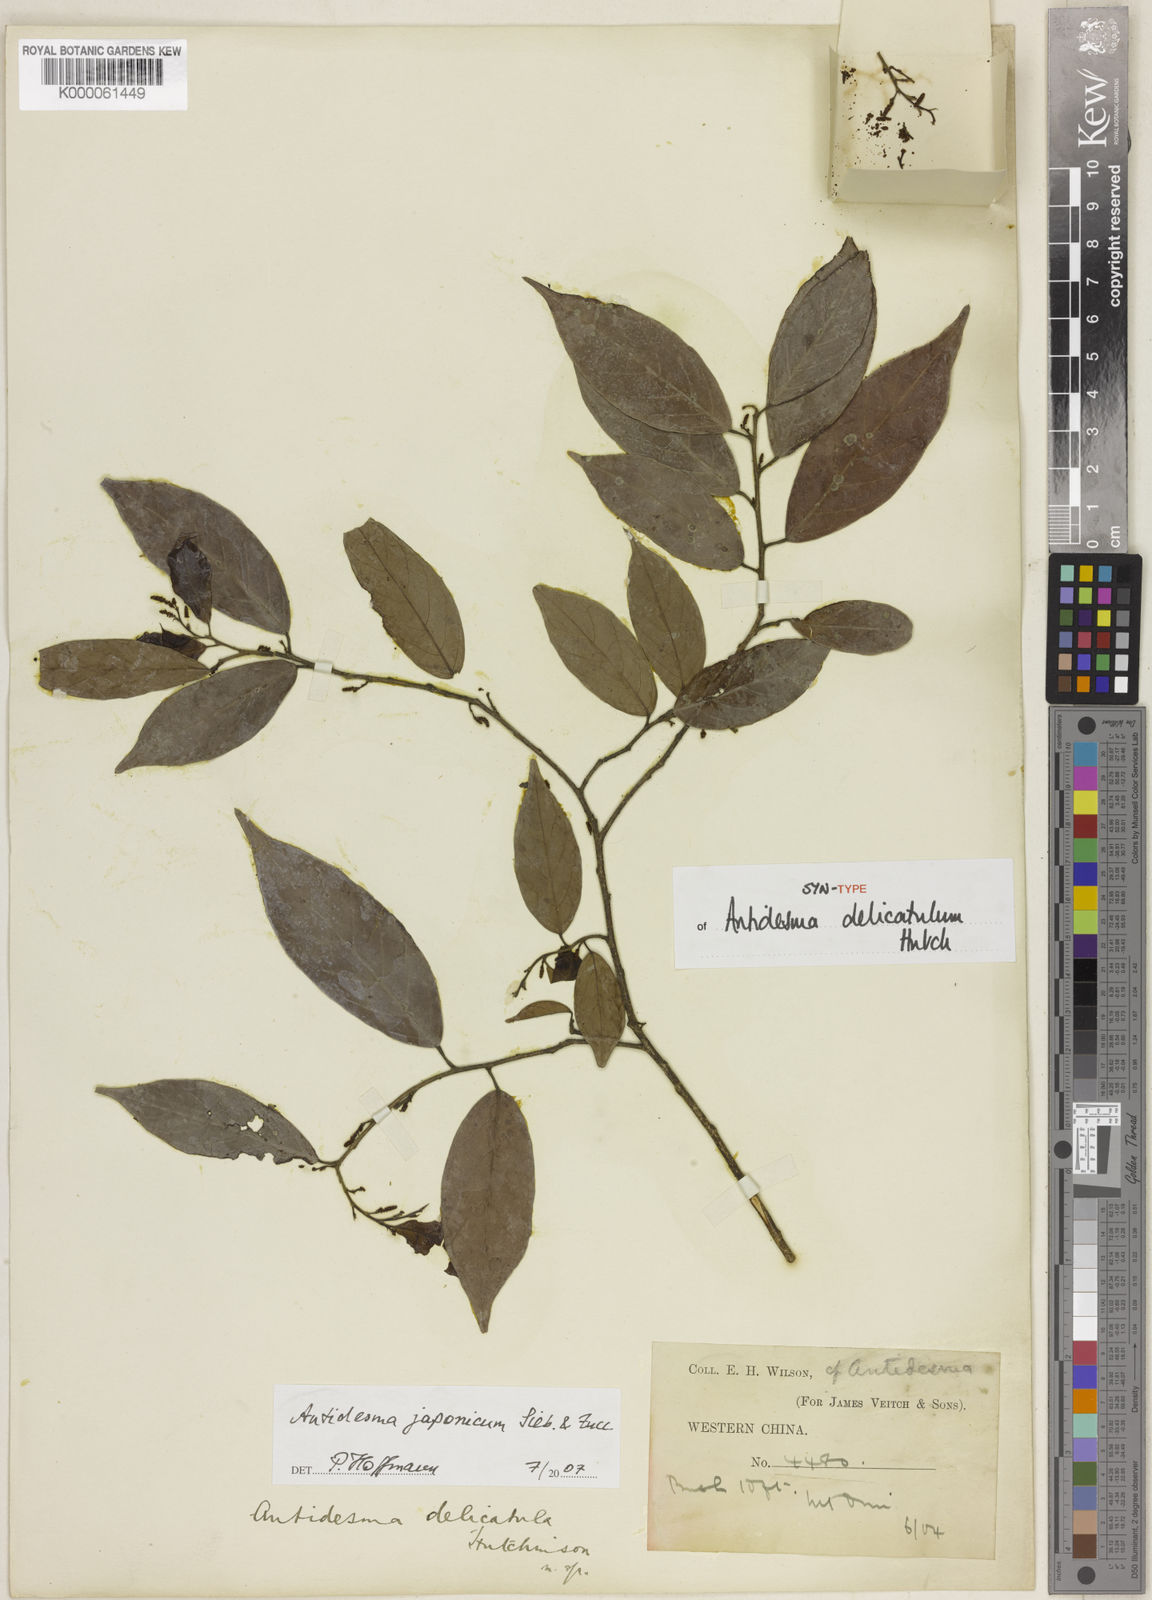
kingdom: Plantae
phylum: Tracheophyta
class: Magnoliopsida
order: Malpighiales
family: Phyllanthaceae
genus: Antidesma
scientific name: Antidesma japonicum
